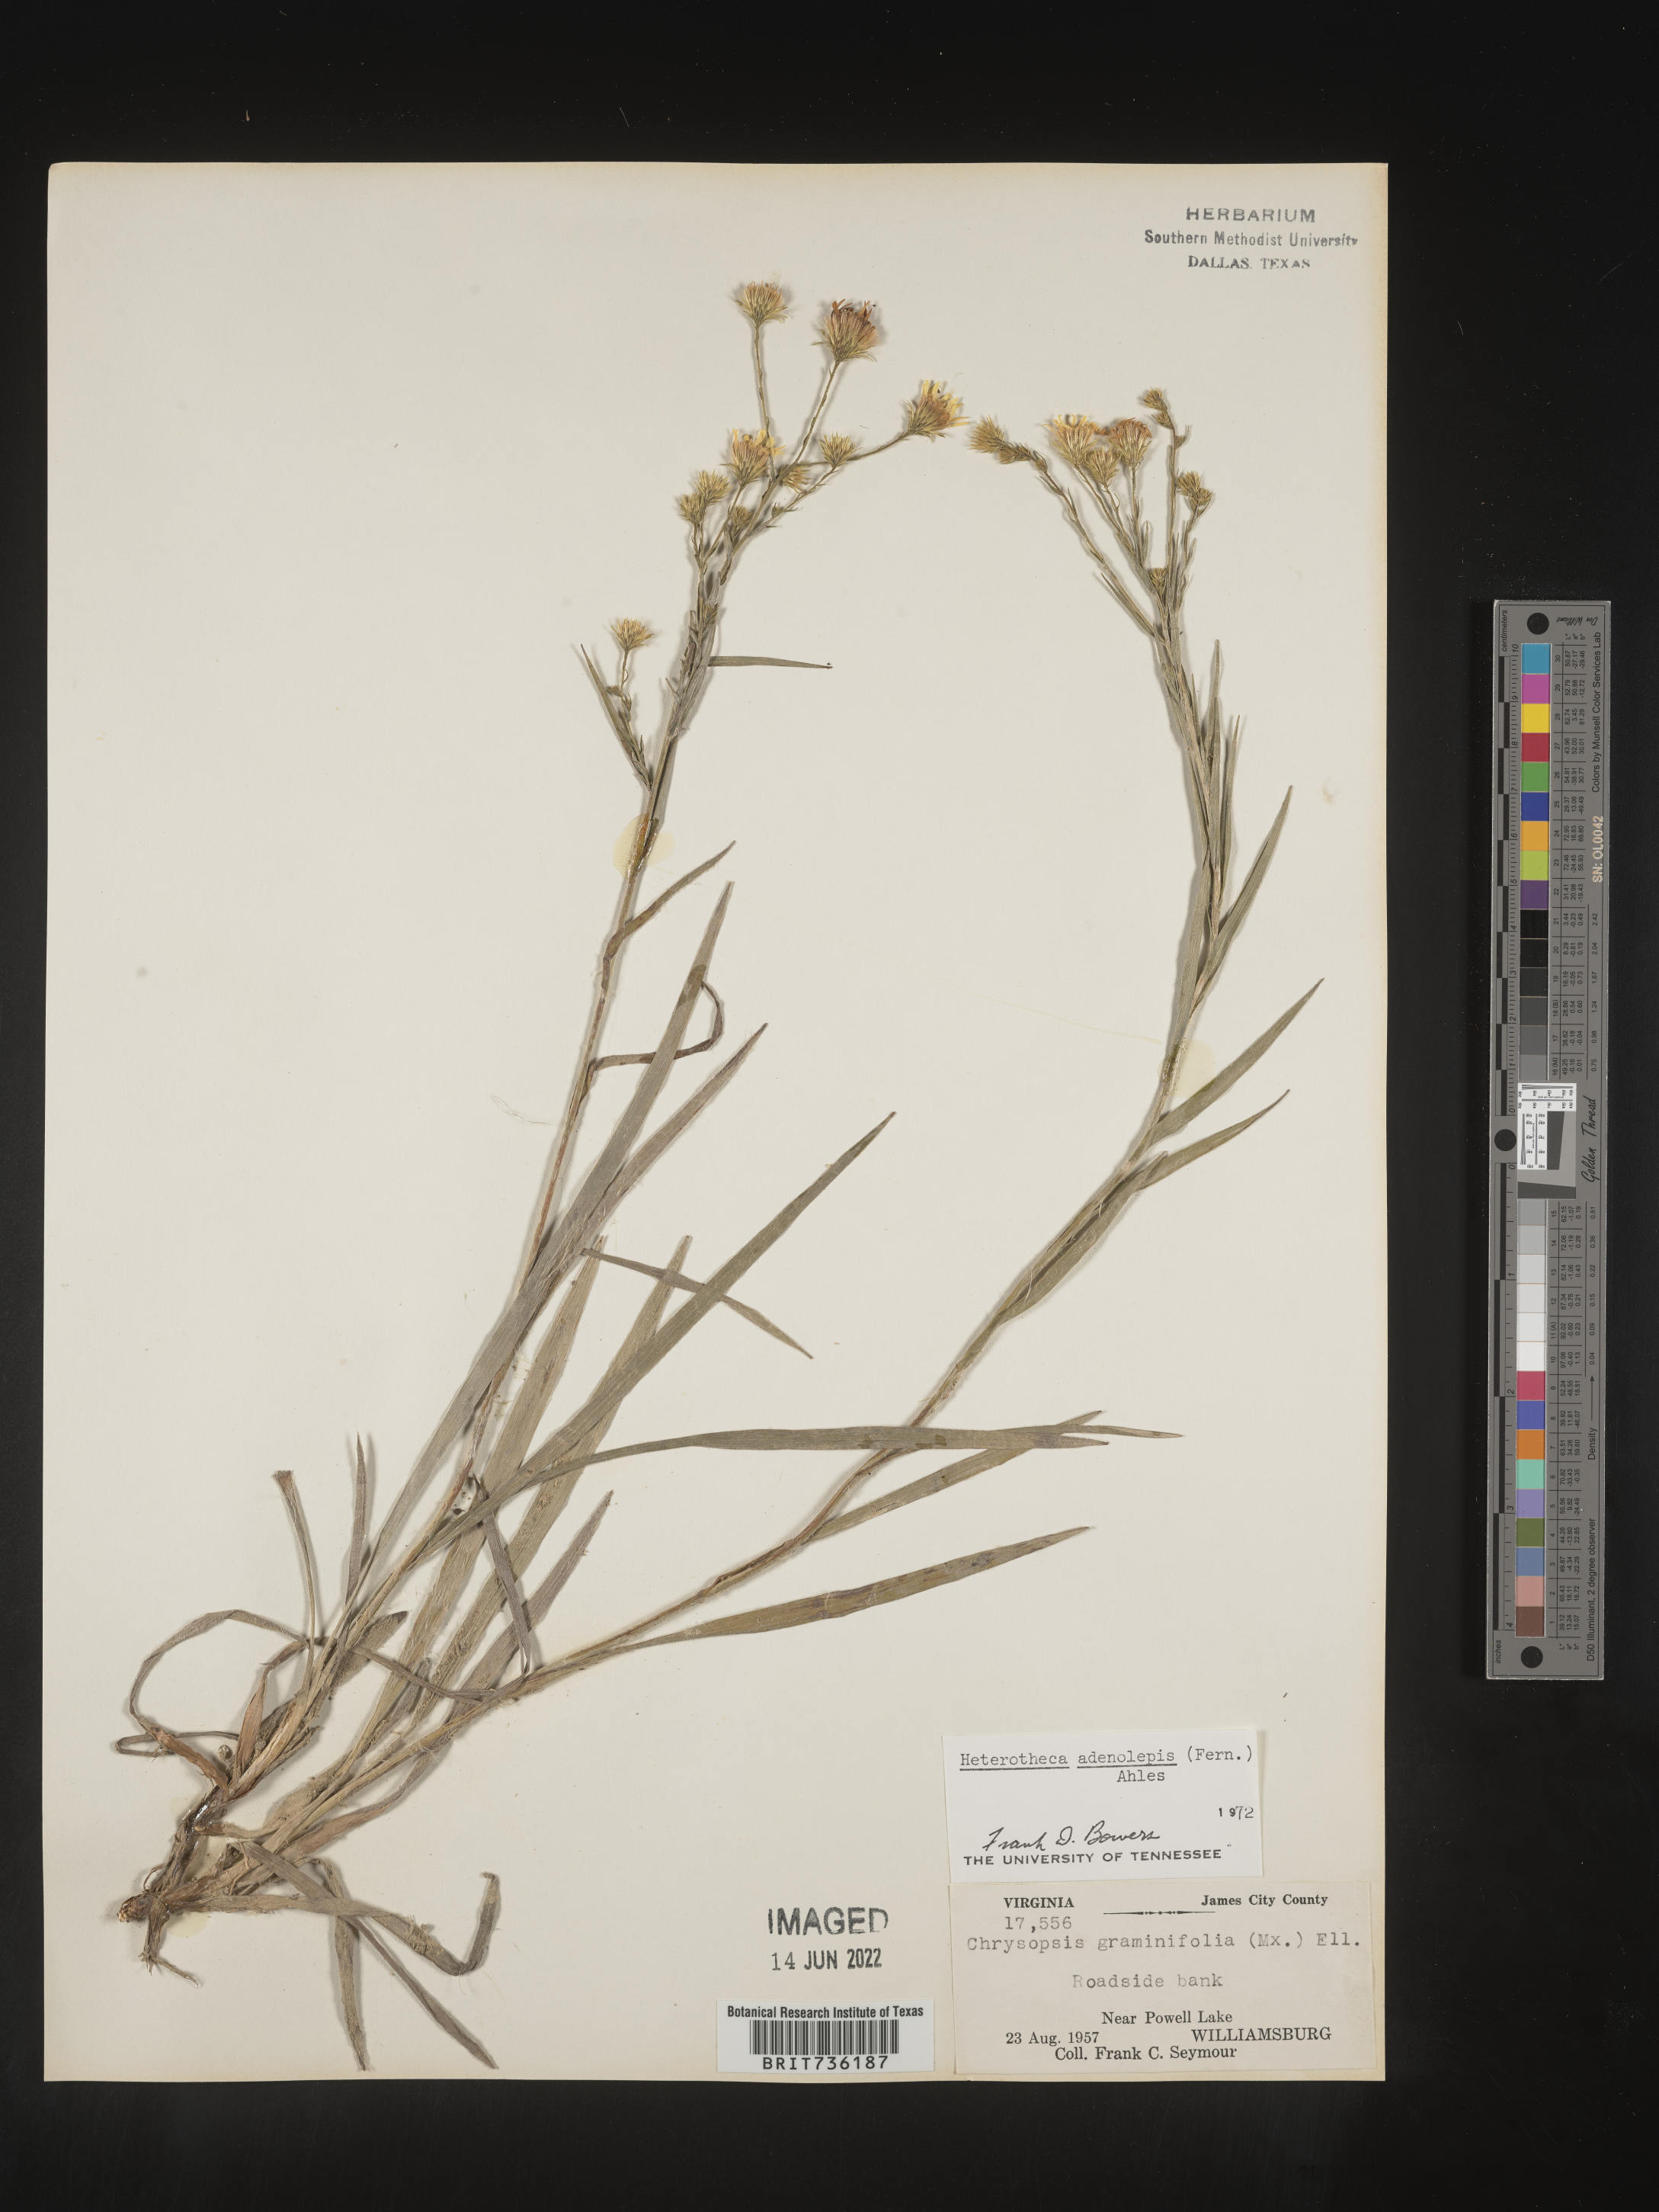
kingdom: Plantae
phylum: Tracheophyta
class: Magnoliopsida
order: Asterales
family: Asteraceae
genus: Pityopsis
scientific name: Pityopsis aspera
